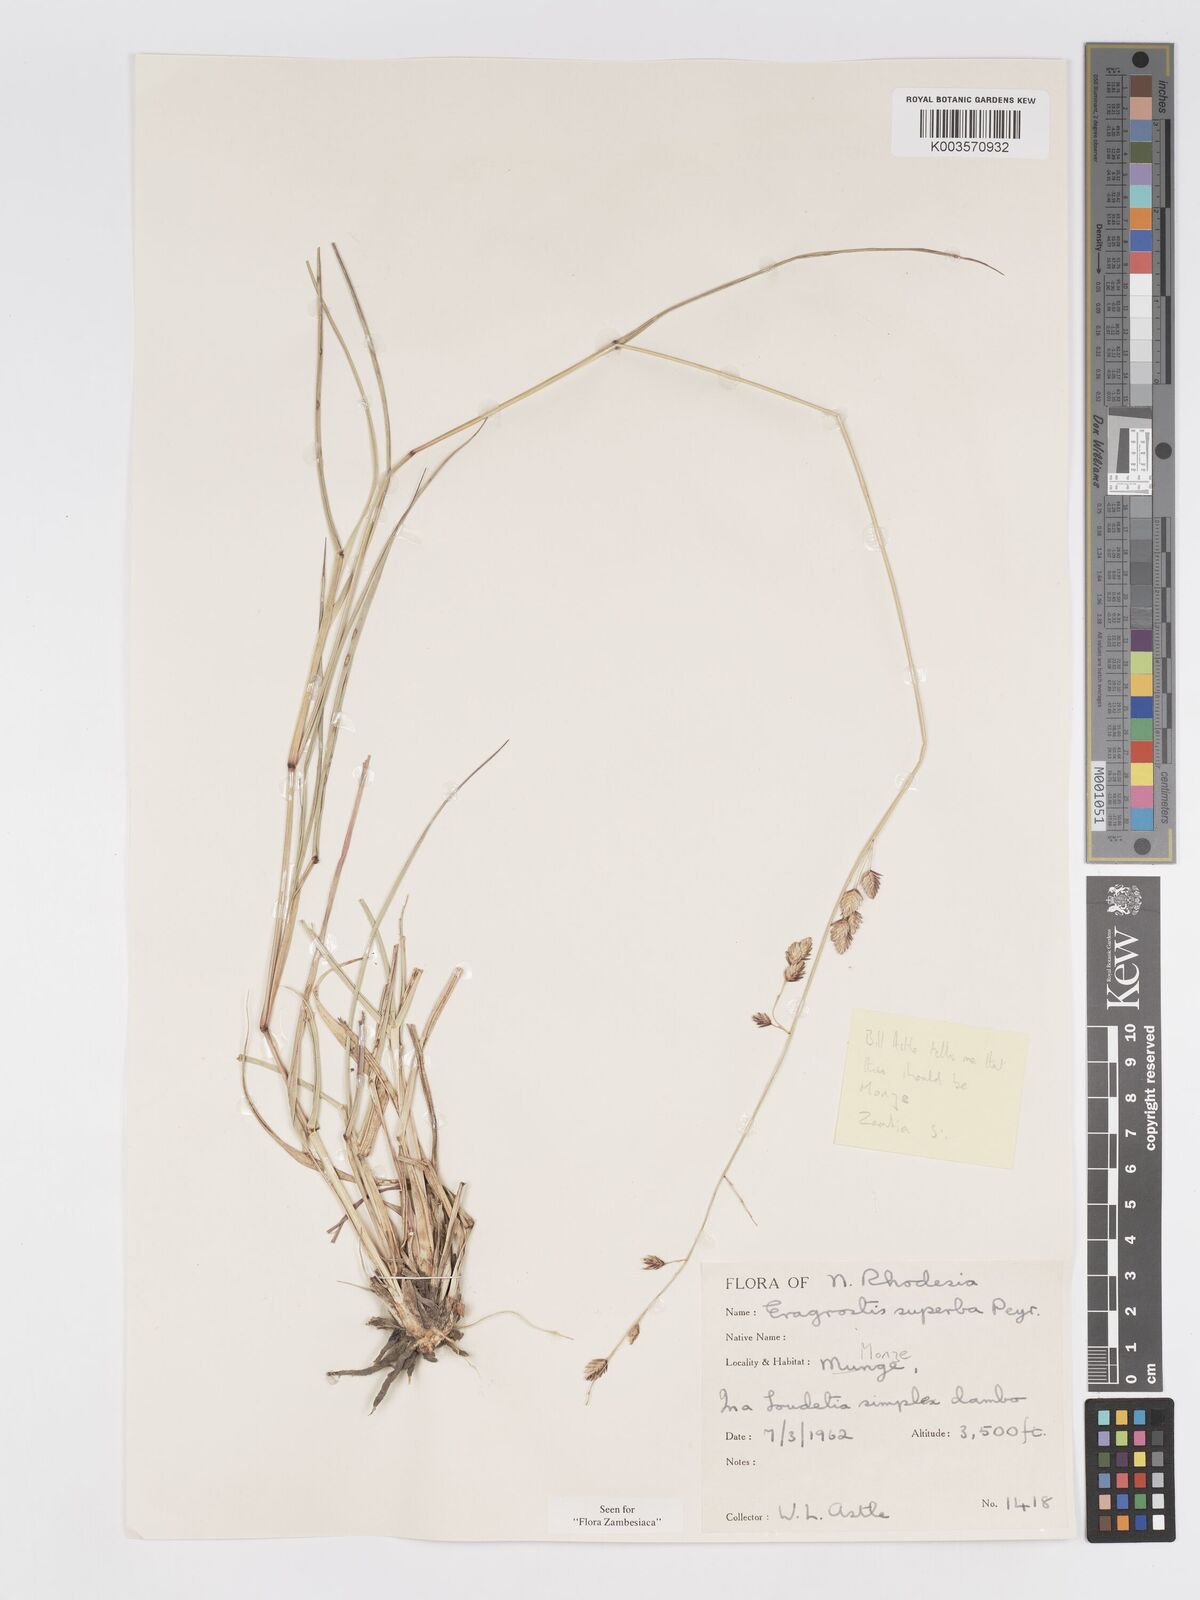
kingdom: Plantae
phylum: Tracheophyta
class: Liliopsida
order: Poales
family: Poaceae
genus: Eragrostis
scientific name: Eragrostis superba
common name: Wilman lovegrass
